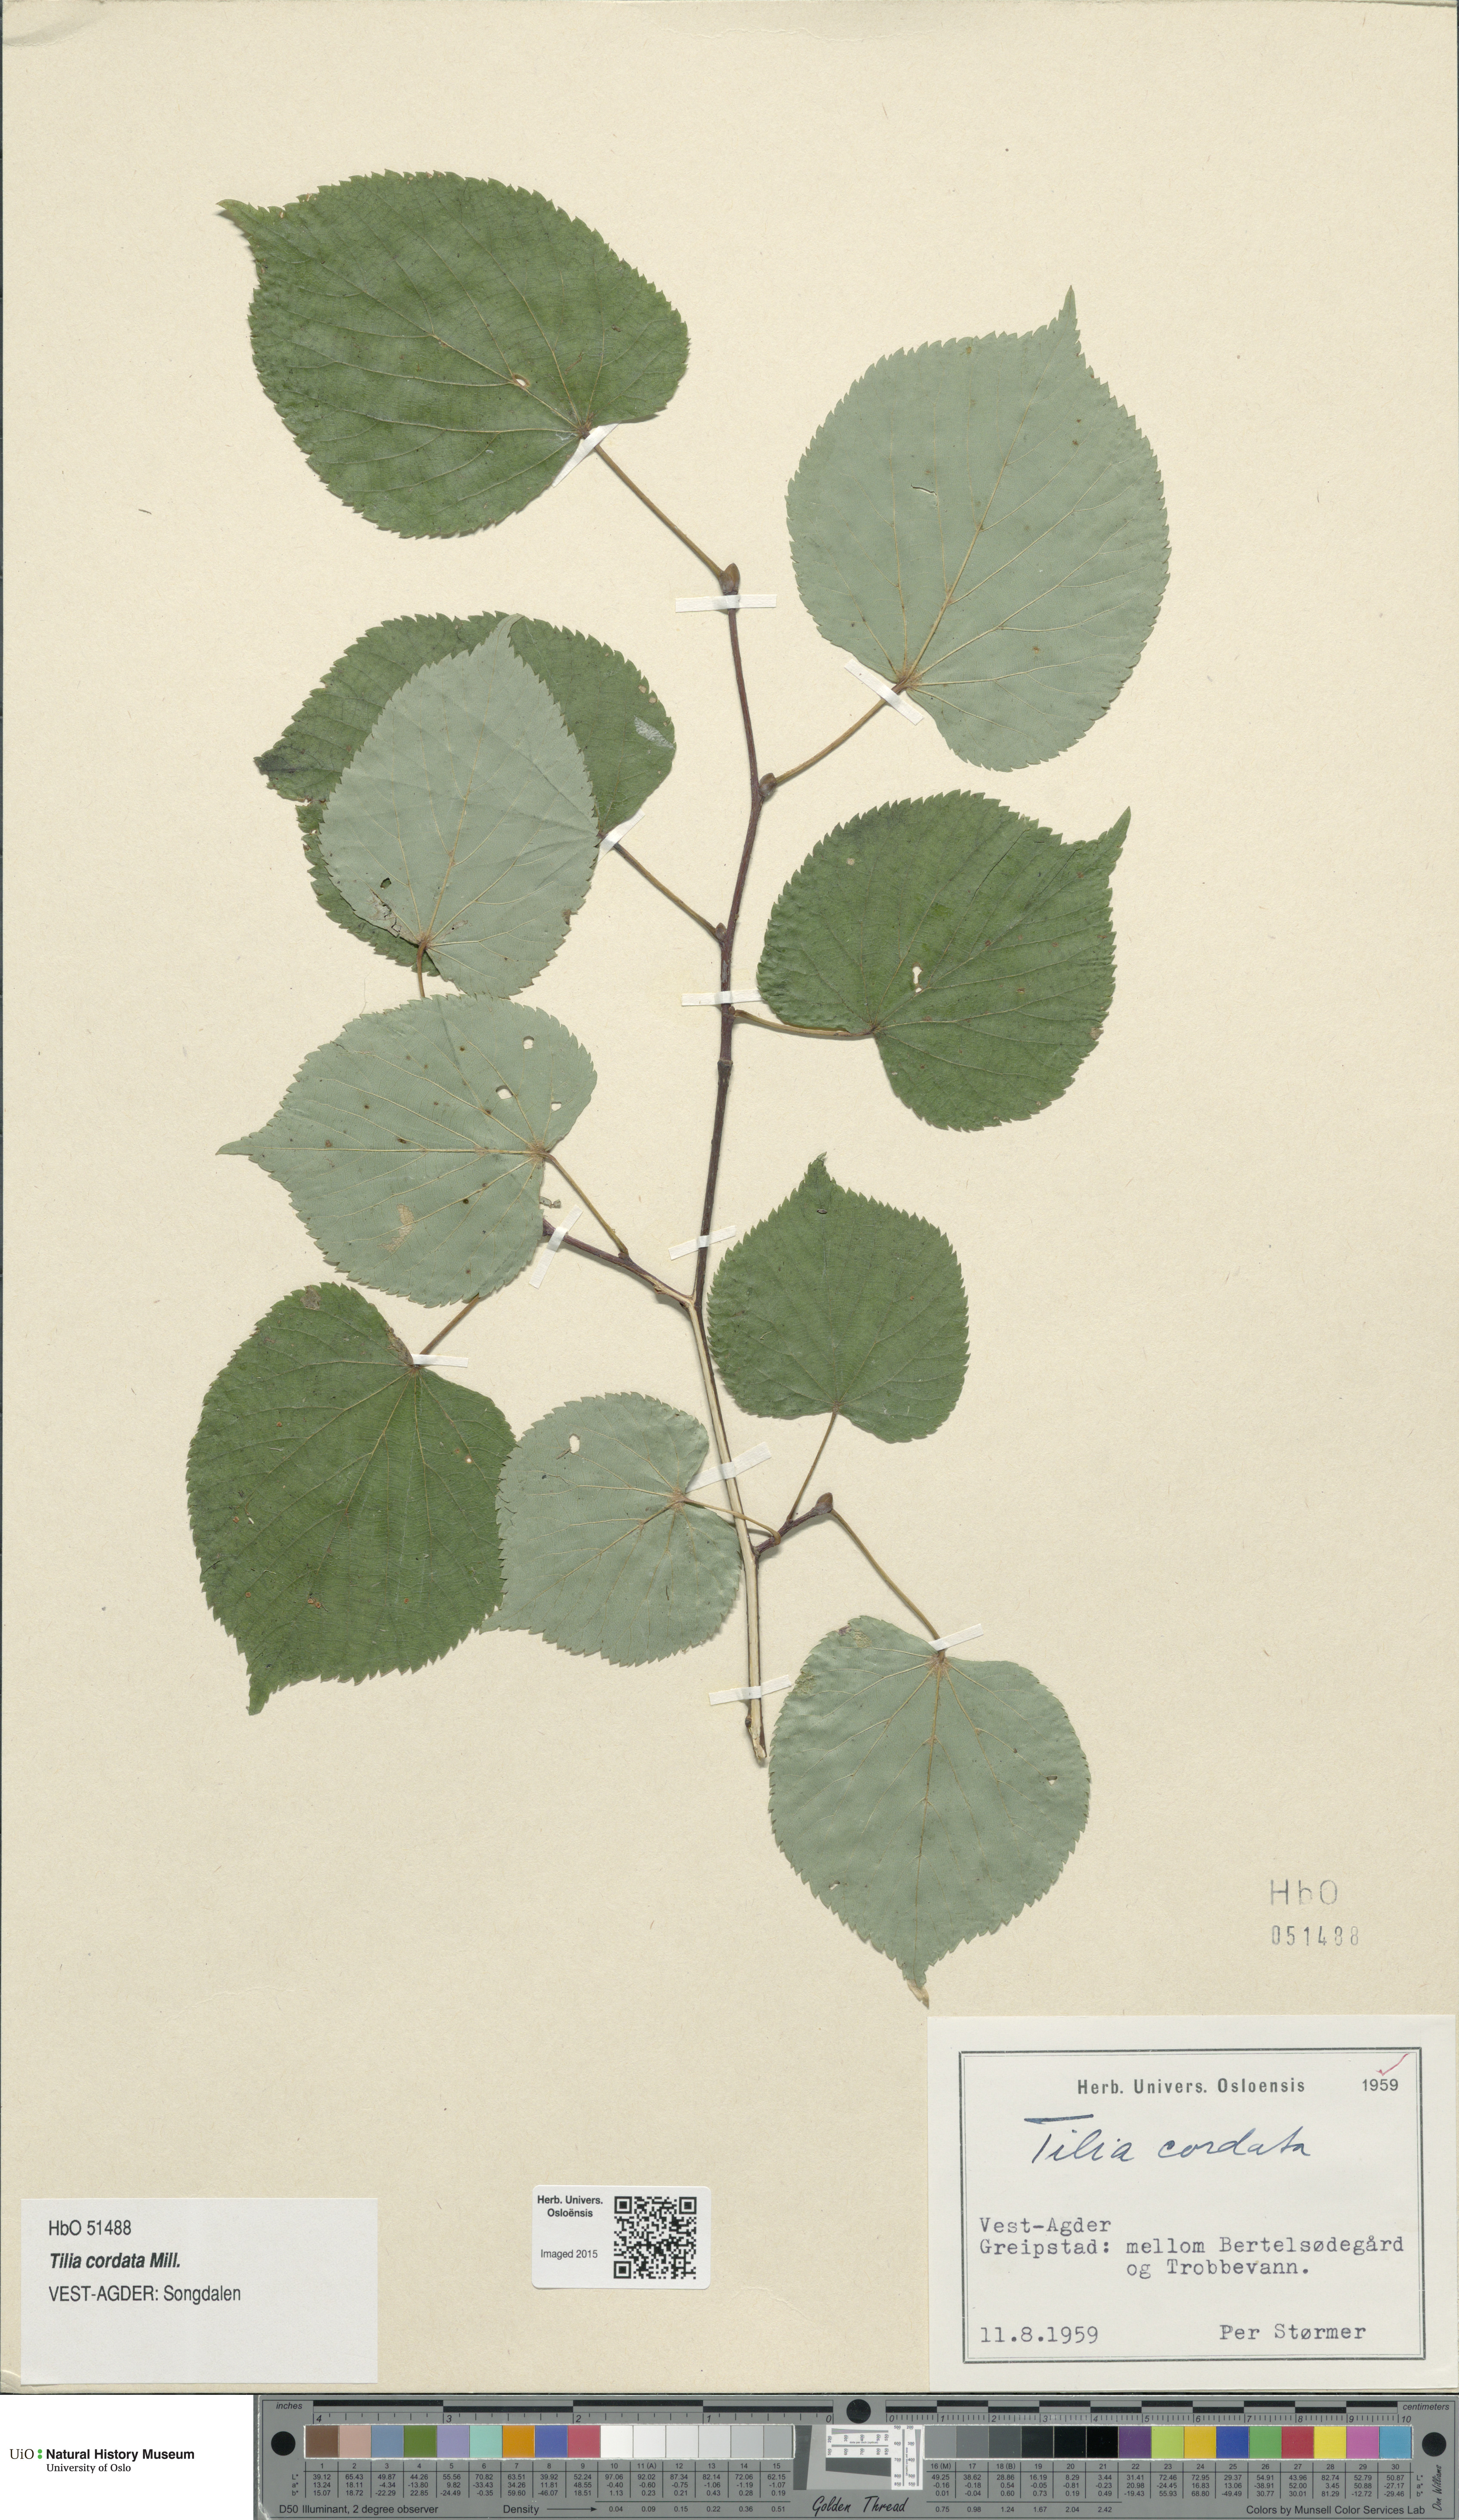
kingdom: Plantae
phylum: Tracheophyta
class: Magnoliopsida
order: Malvales
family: Malvaceae
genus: Tilia
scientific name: Tilia cordata
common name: Small-leaved lime
